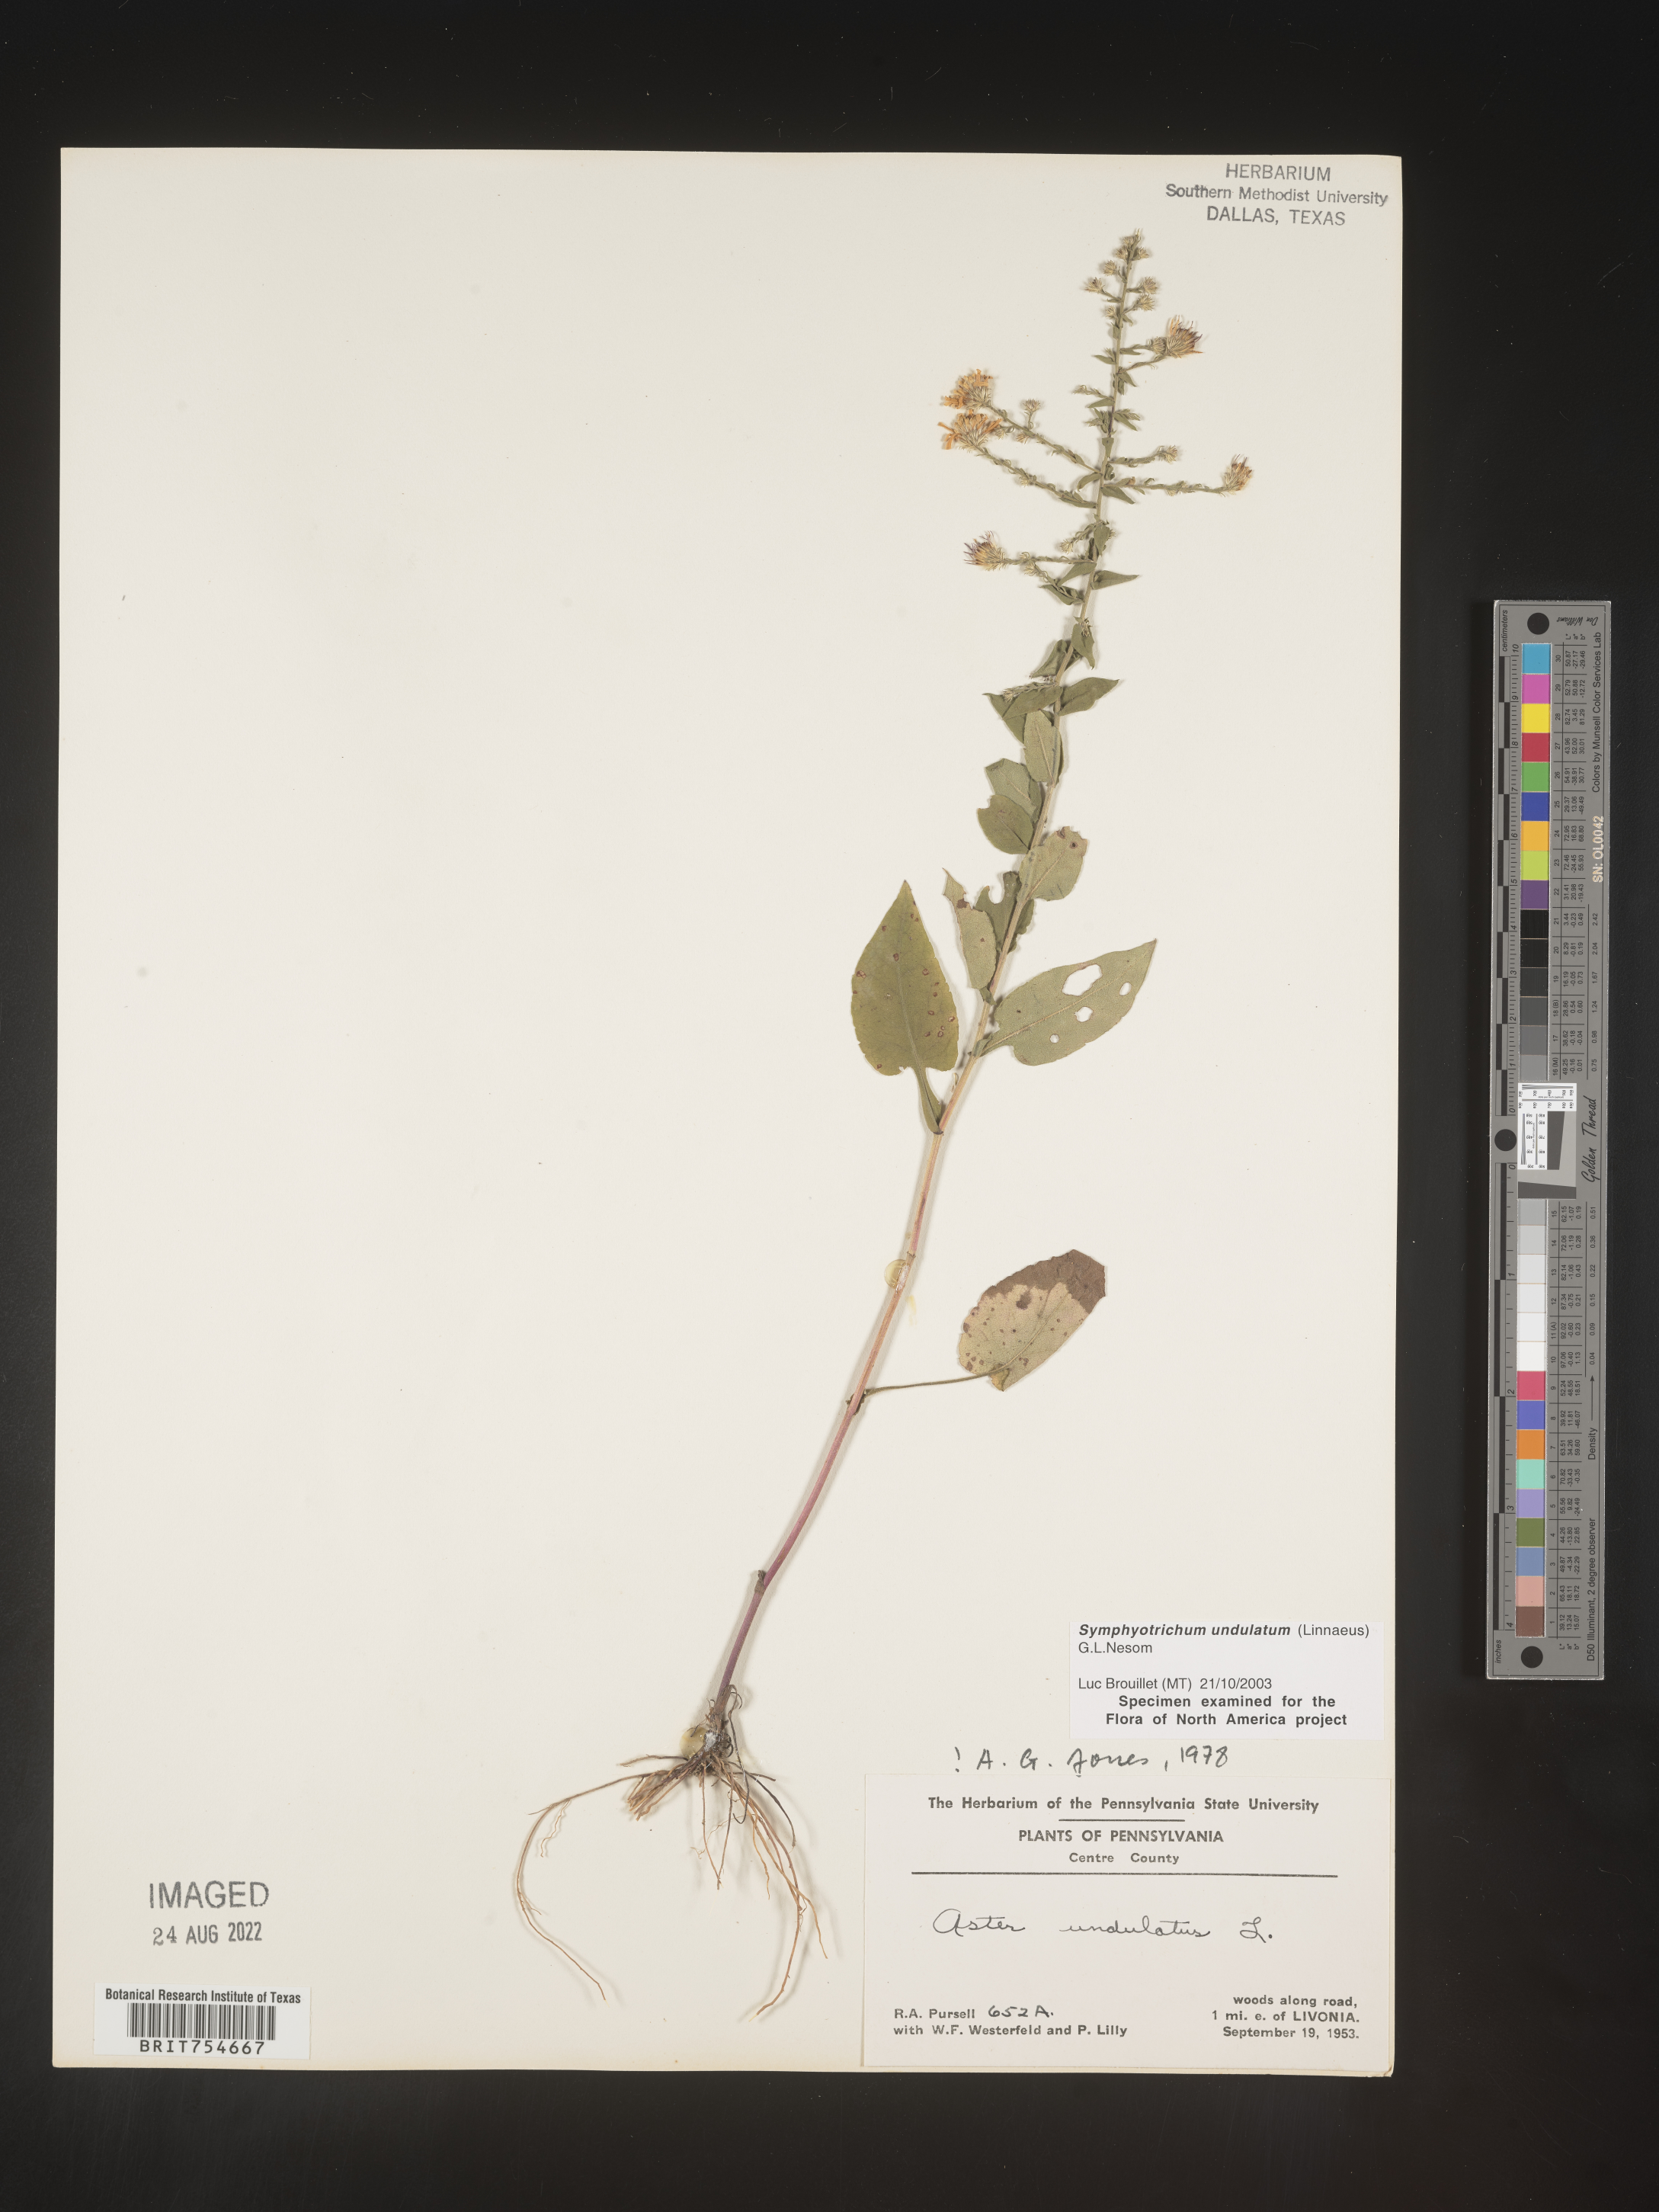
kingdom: Plantae
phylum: Tracheophyta
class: Magnoliopsida
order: Asterales
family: Asteraceae
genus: Symphyotrichum
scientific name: Symphyotrichum undulatum
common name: Clasping heart-leaf aster
